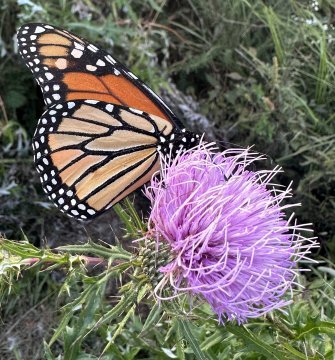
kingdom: Animalia
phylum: Arthropoda
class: Insecta
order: Lepidoptera
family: Nymphalidae
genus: Danaus
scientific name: Danaus plexippus
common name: Monarch
